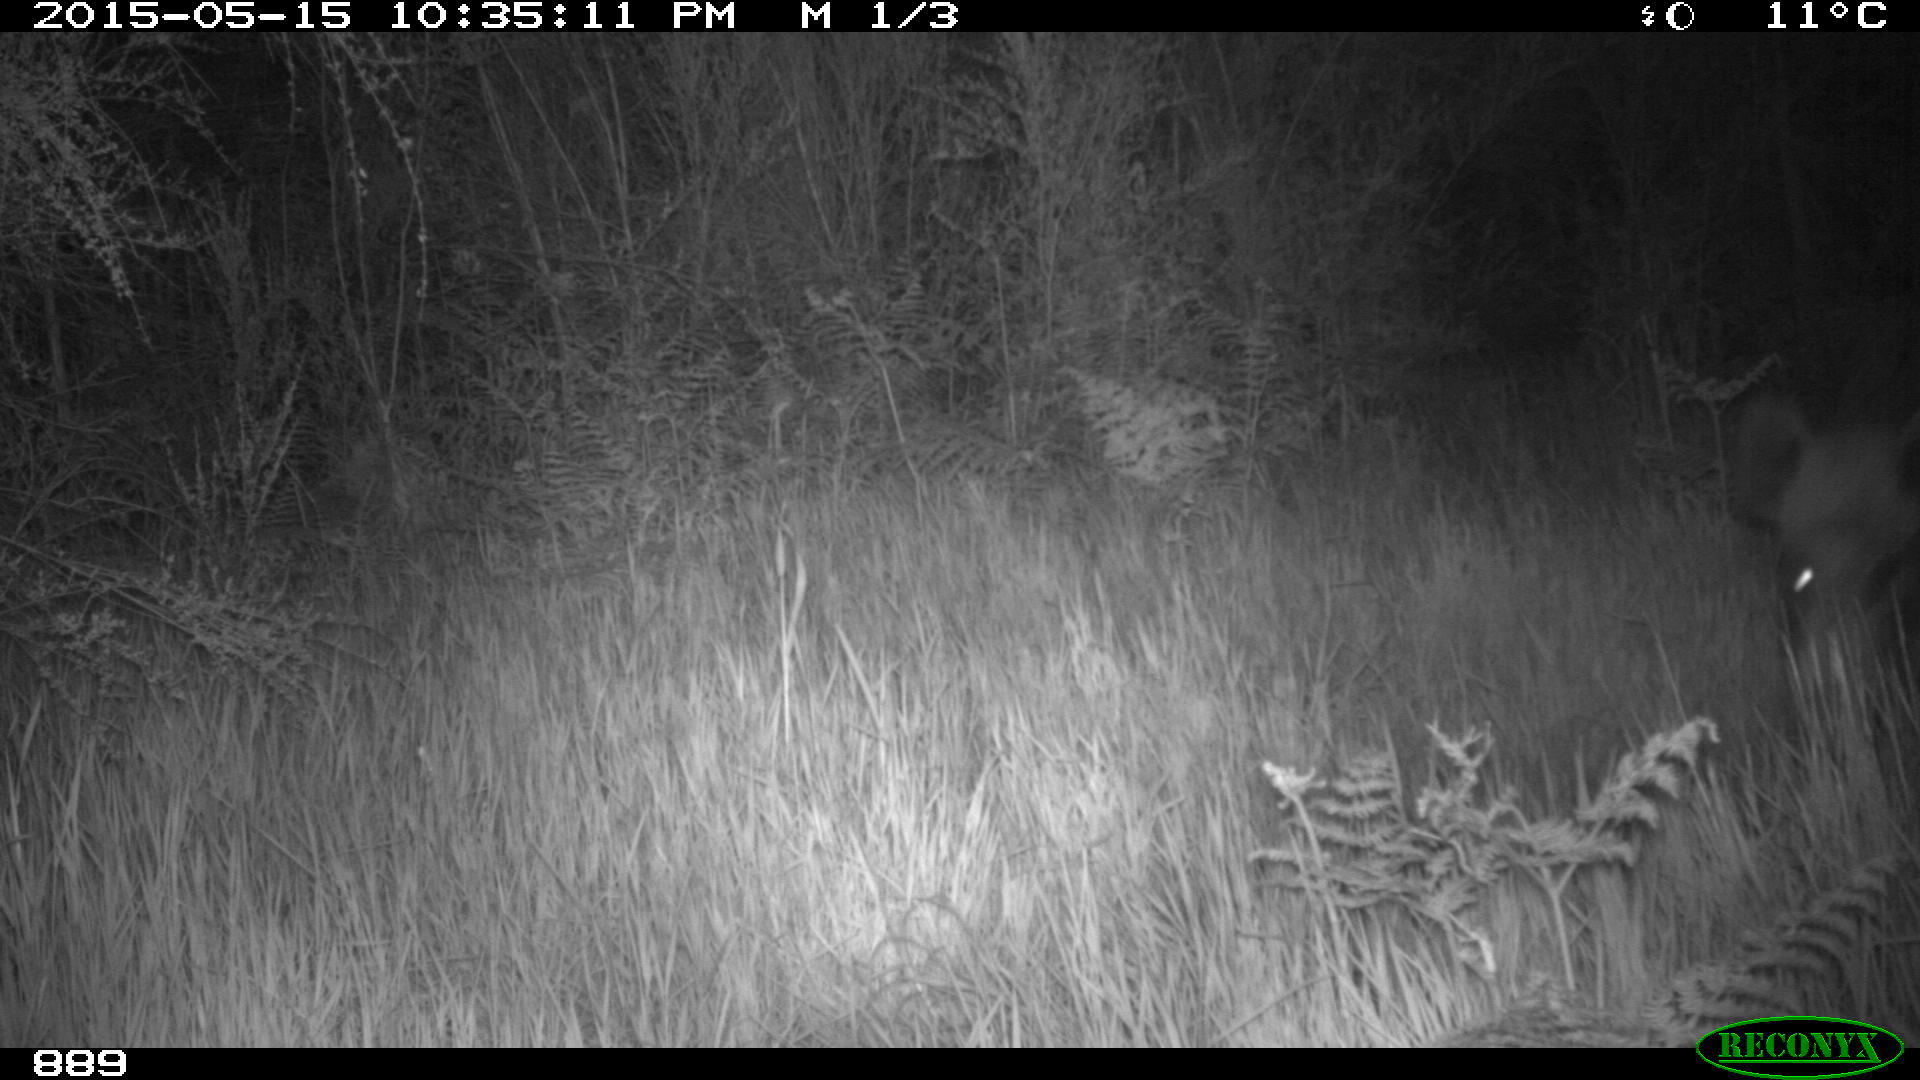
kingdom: Animalia
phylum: Chordata
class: Mammalia
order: Artiodactyla
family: Suidae
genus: Sus
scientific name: Sus scrofa
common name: Wild boar
